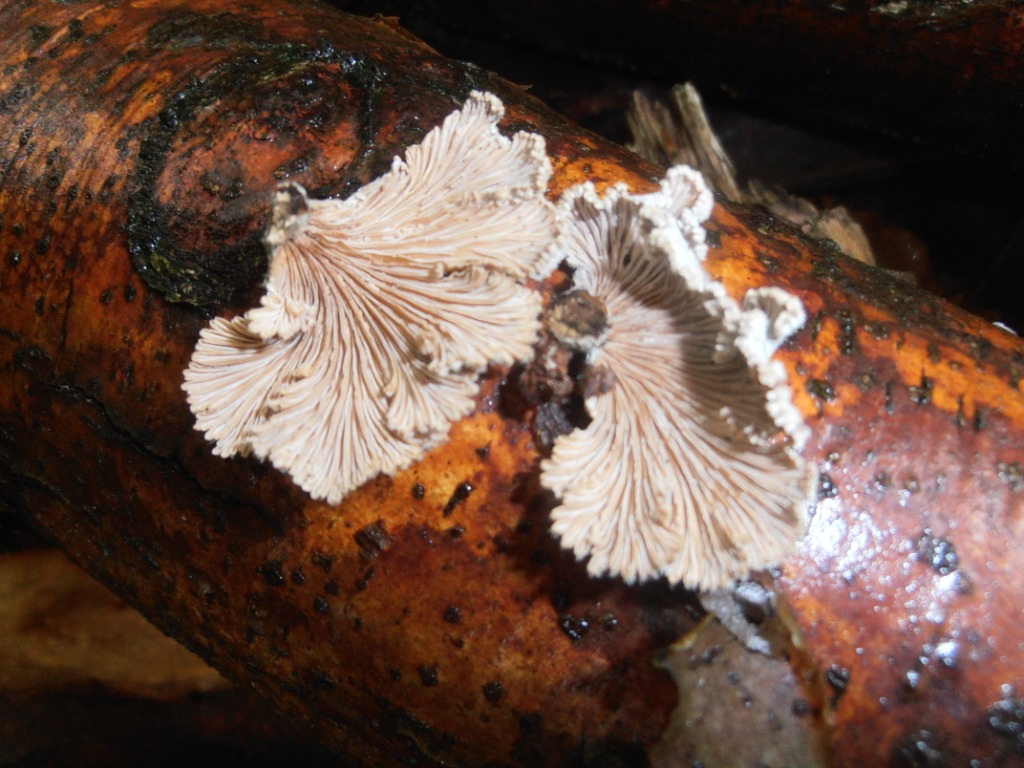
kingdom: Fungi
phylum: Basidiomycota
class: Agaricomycetes
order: Agaricales
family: Schizophyllaceae
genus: Schizophyllum
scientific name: Schizophyllum commune
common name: kløvblad
